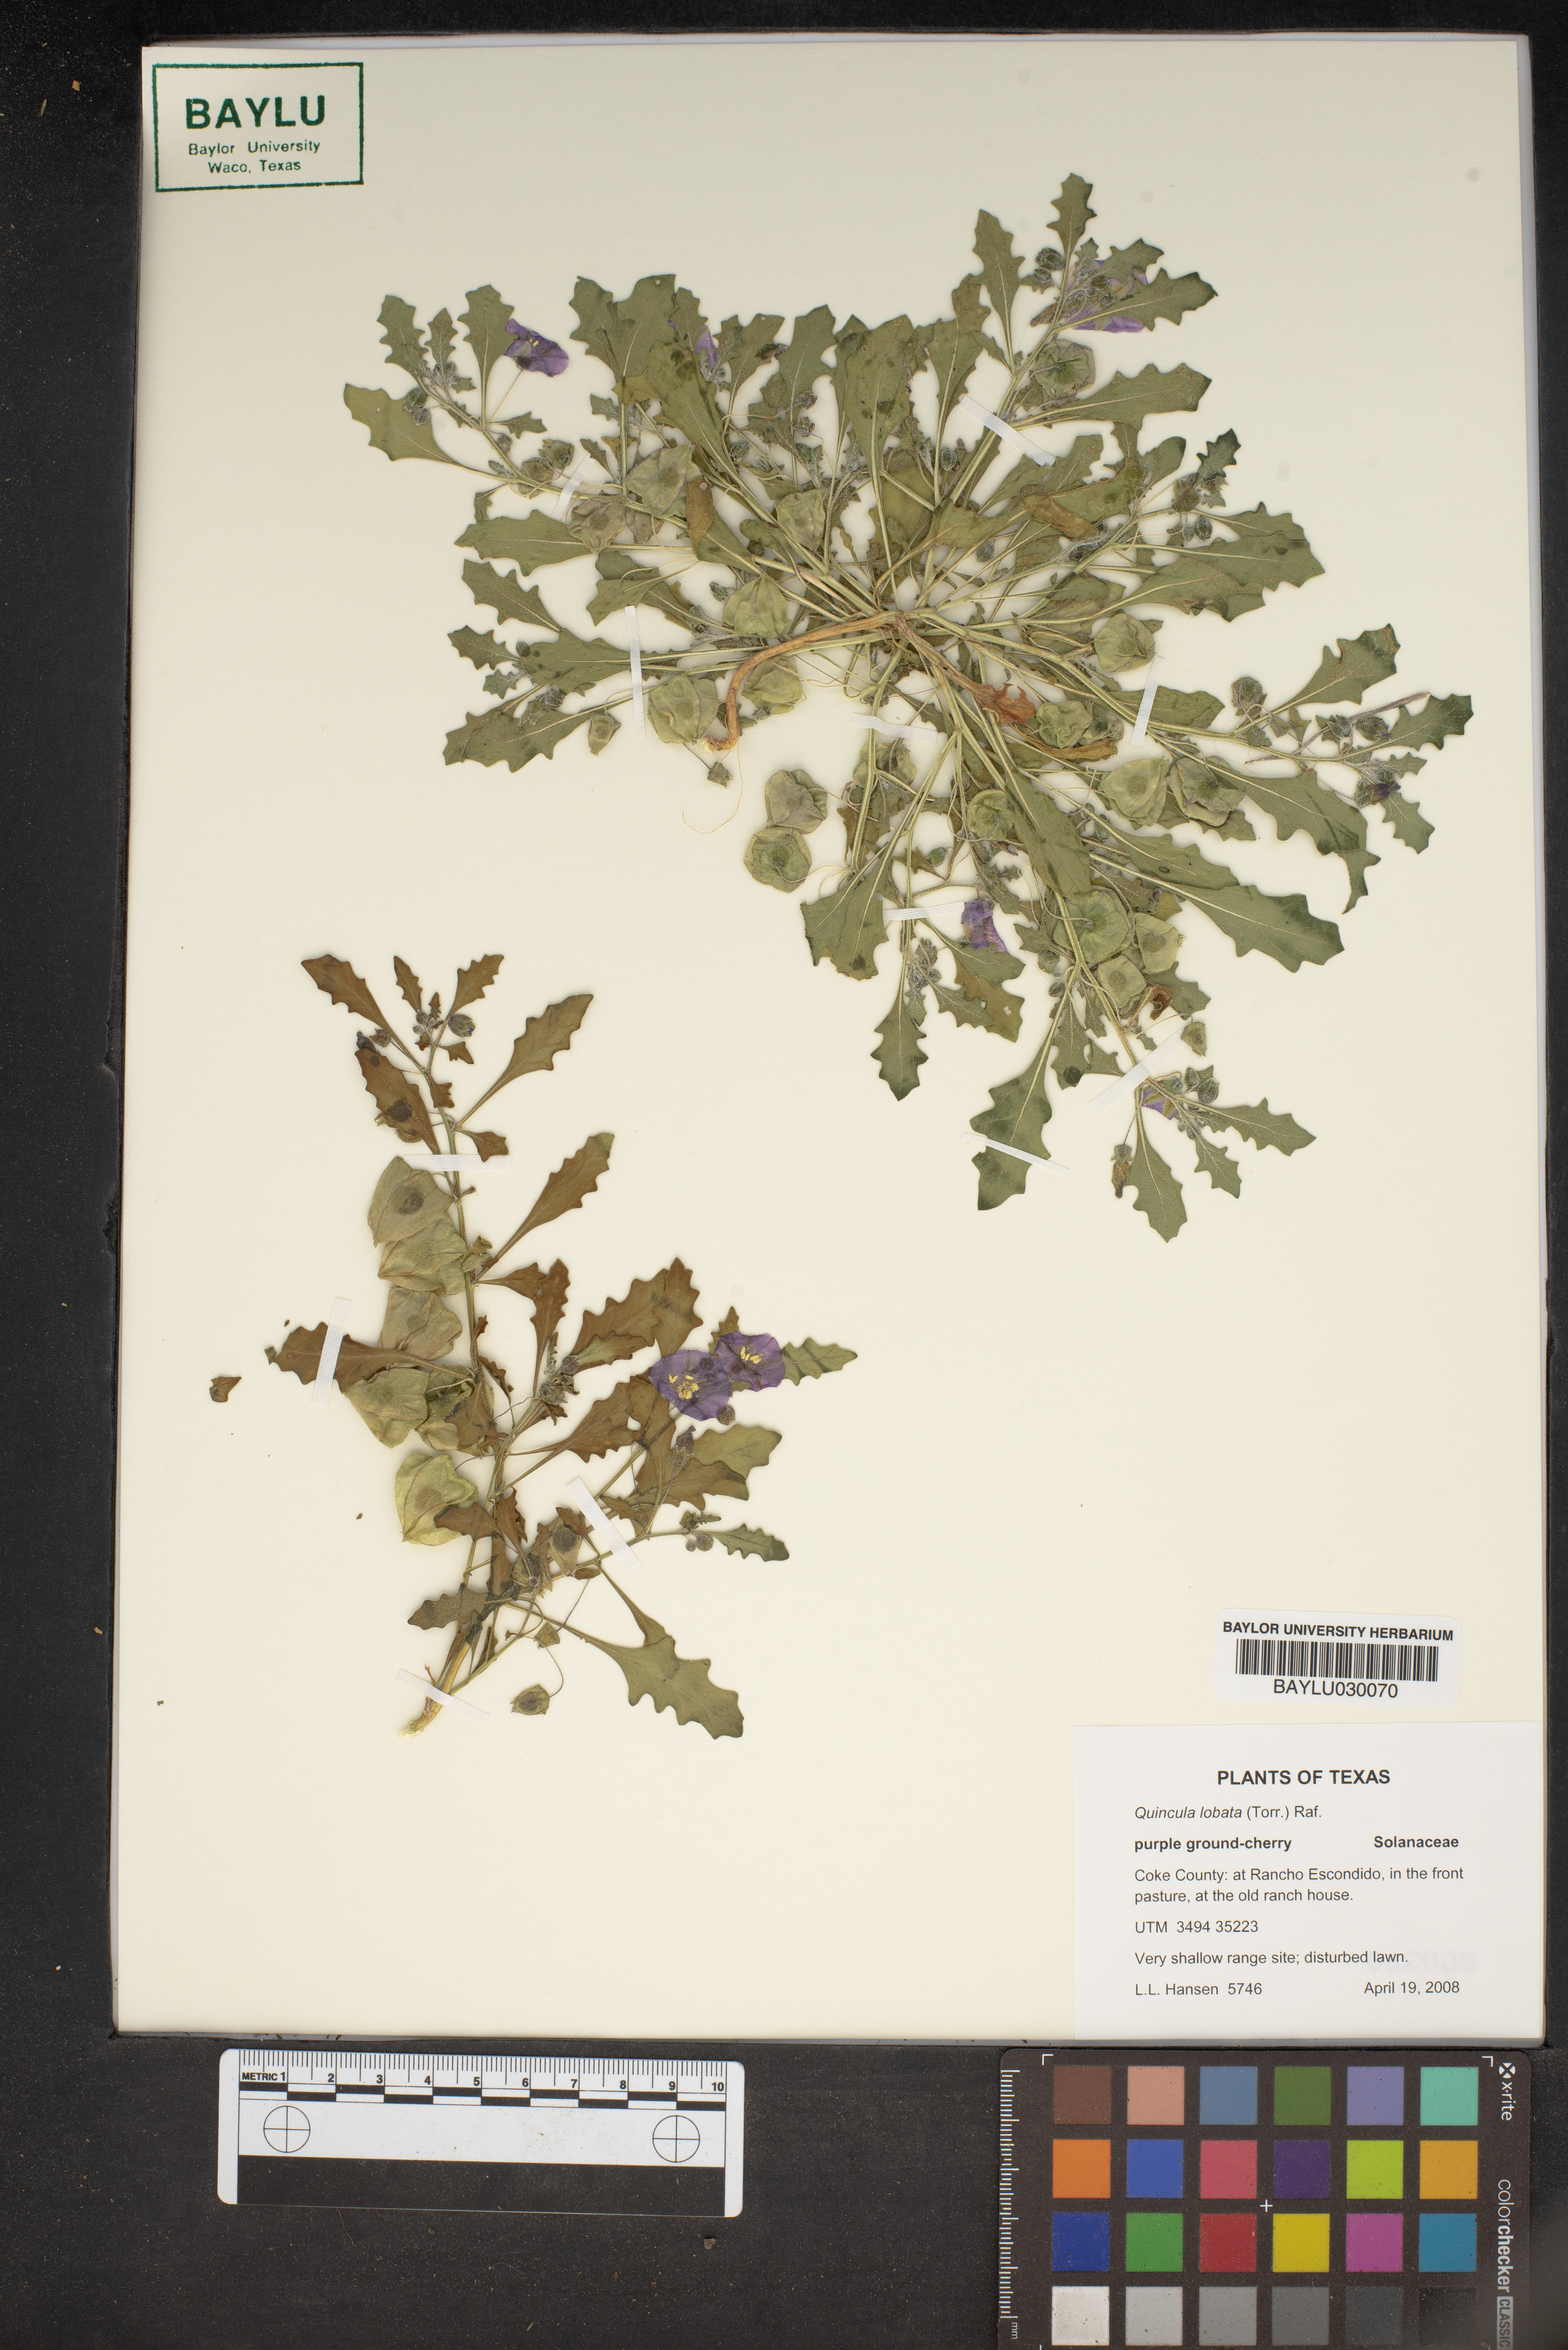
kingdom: Plantae
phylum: Tracheophyta
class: Magnoliopsida
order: Solanales
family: Solanaceae
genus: Quincula
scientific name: Quincula lobata
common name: Purple-ground-cherry
